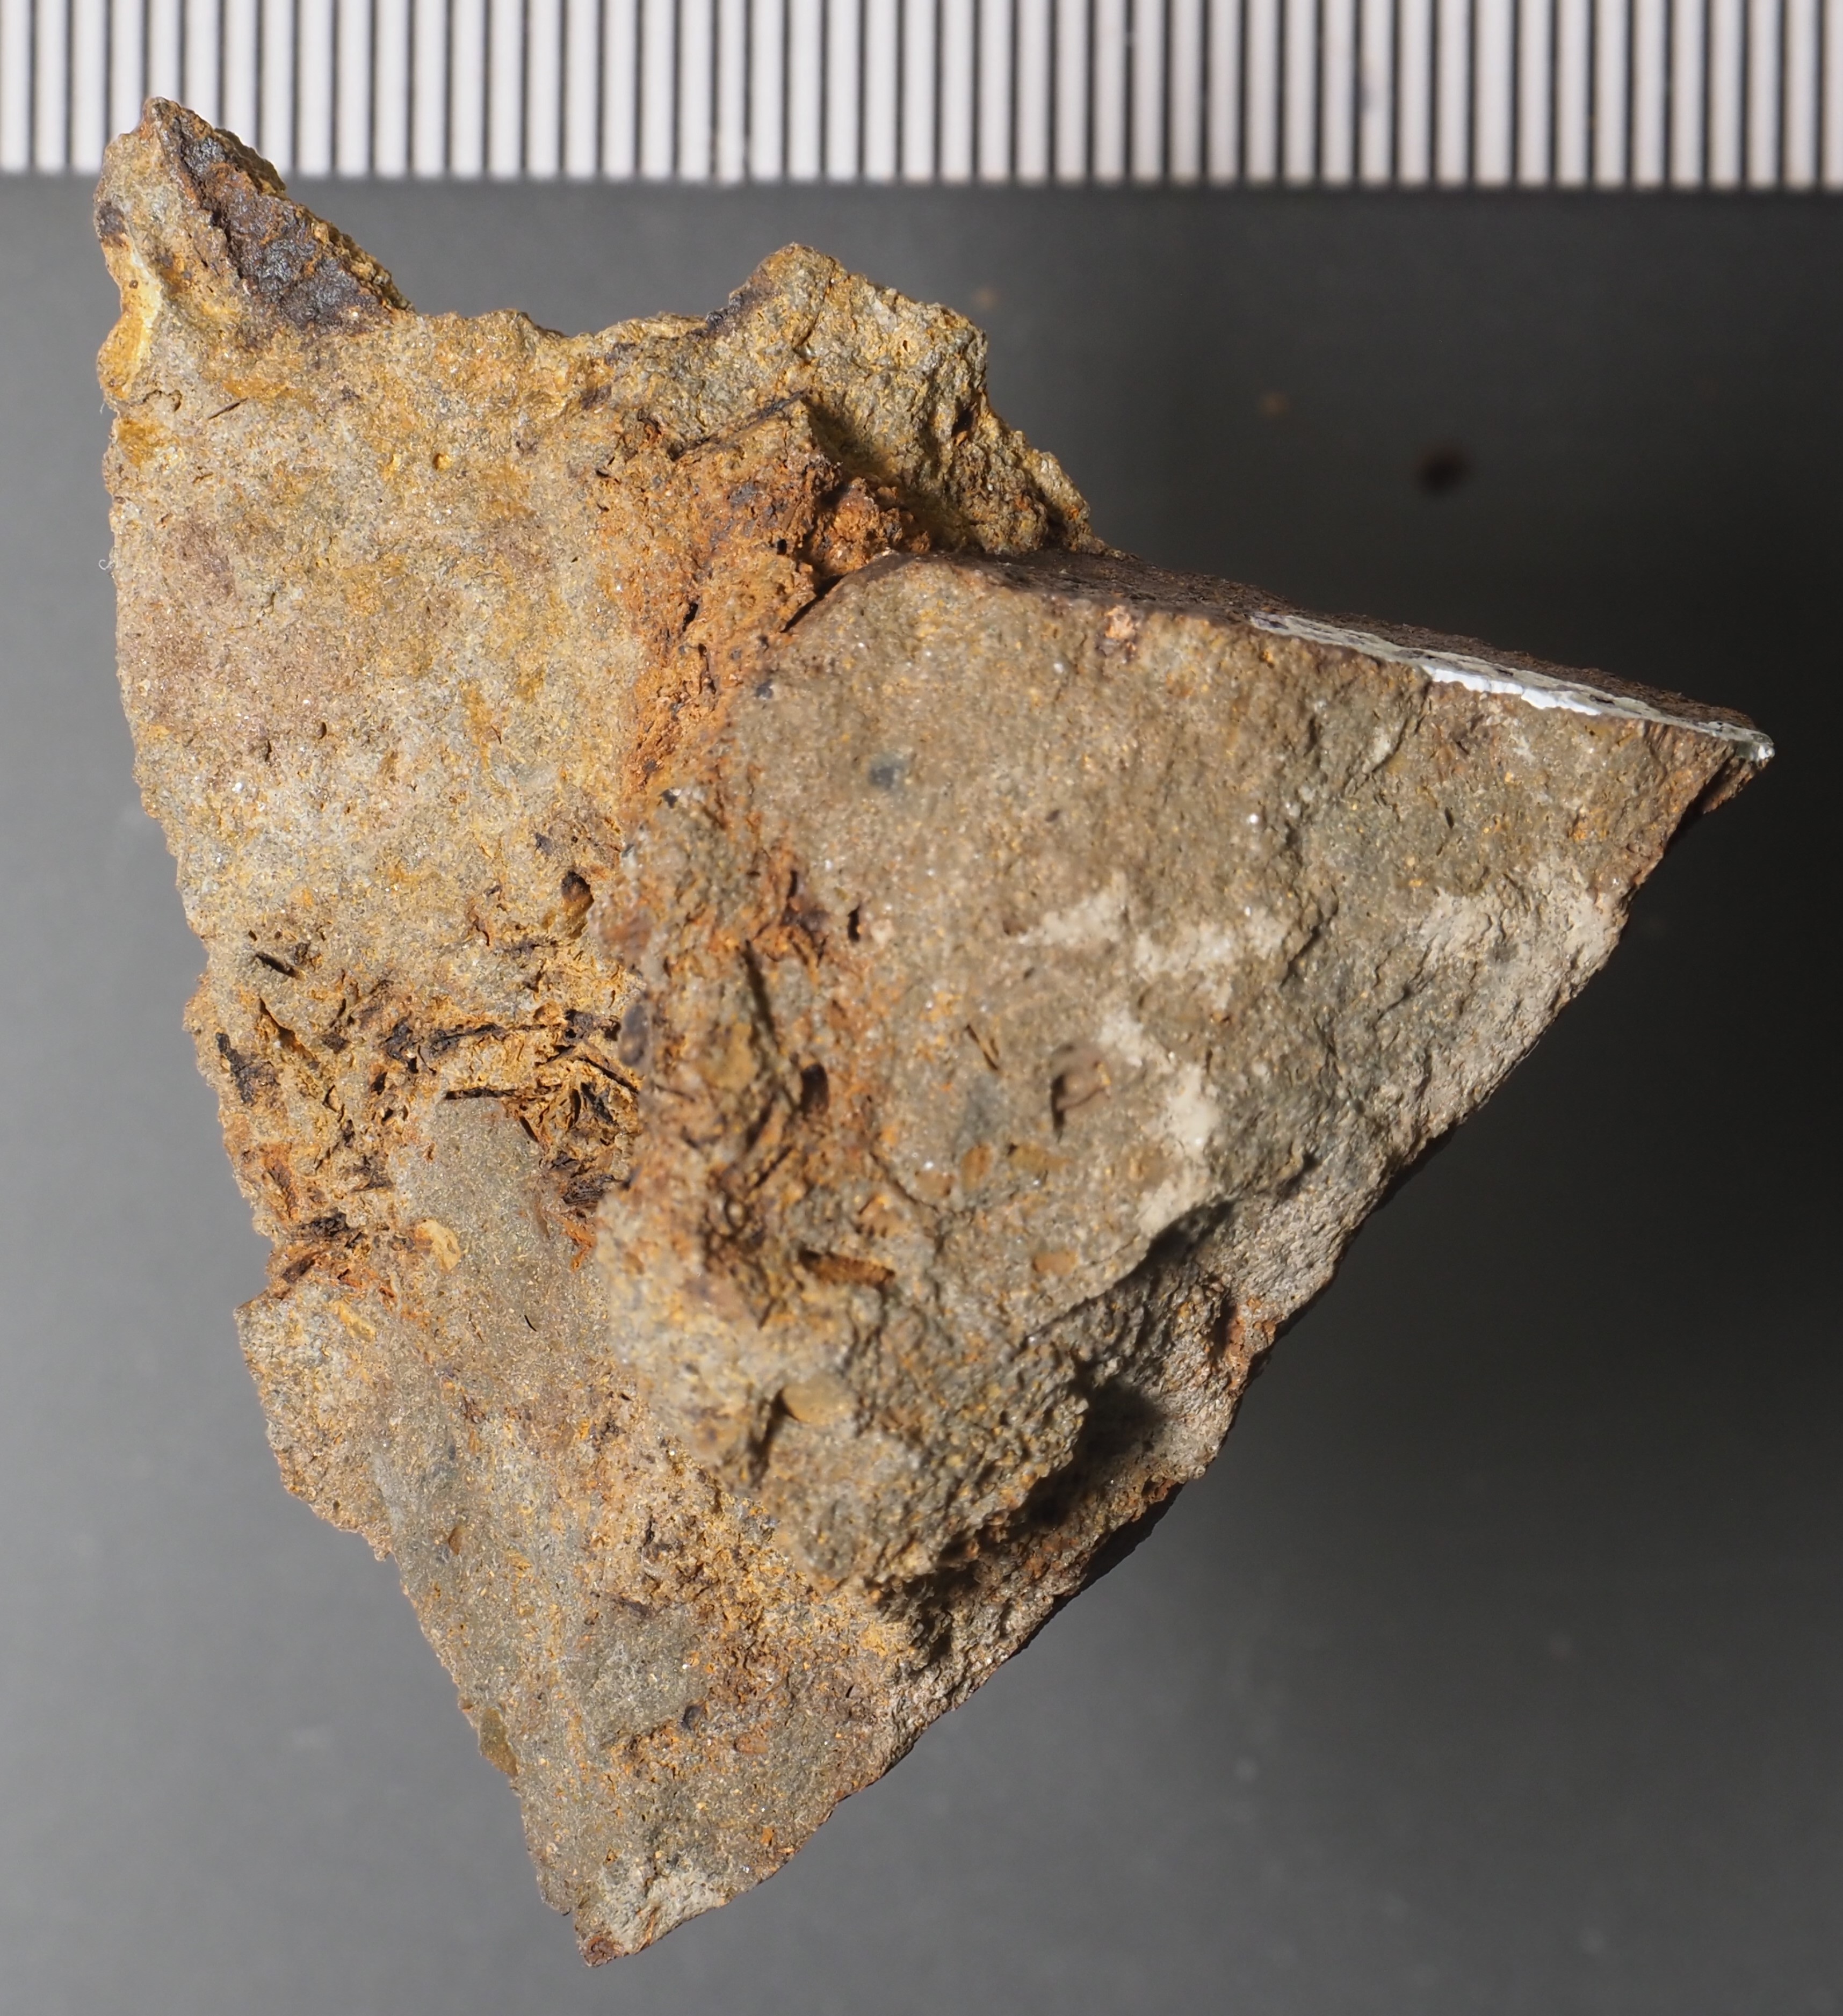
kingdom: Animalia
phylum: Arthropoda
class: Ostracoda
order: Palaeocopida
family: Kloedeniidae
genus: Zygobeyrichia
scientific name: Zygobeyrichia
